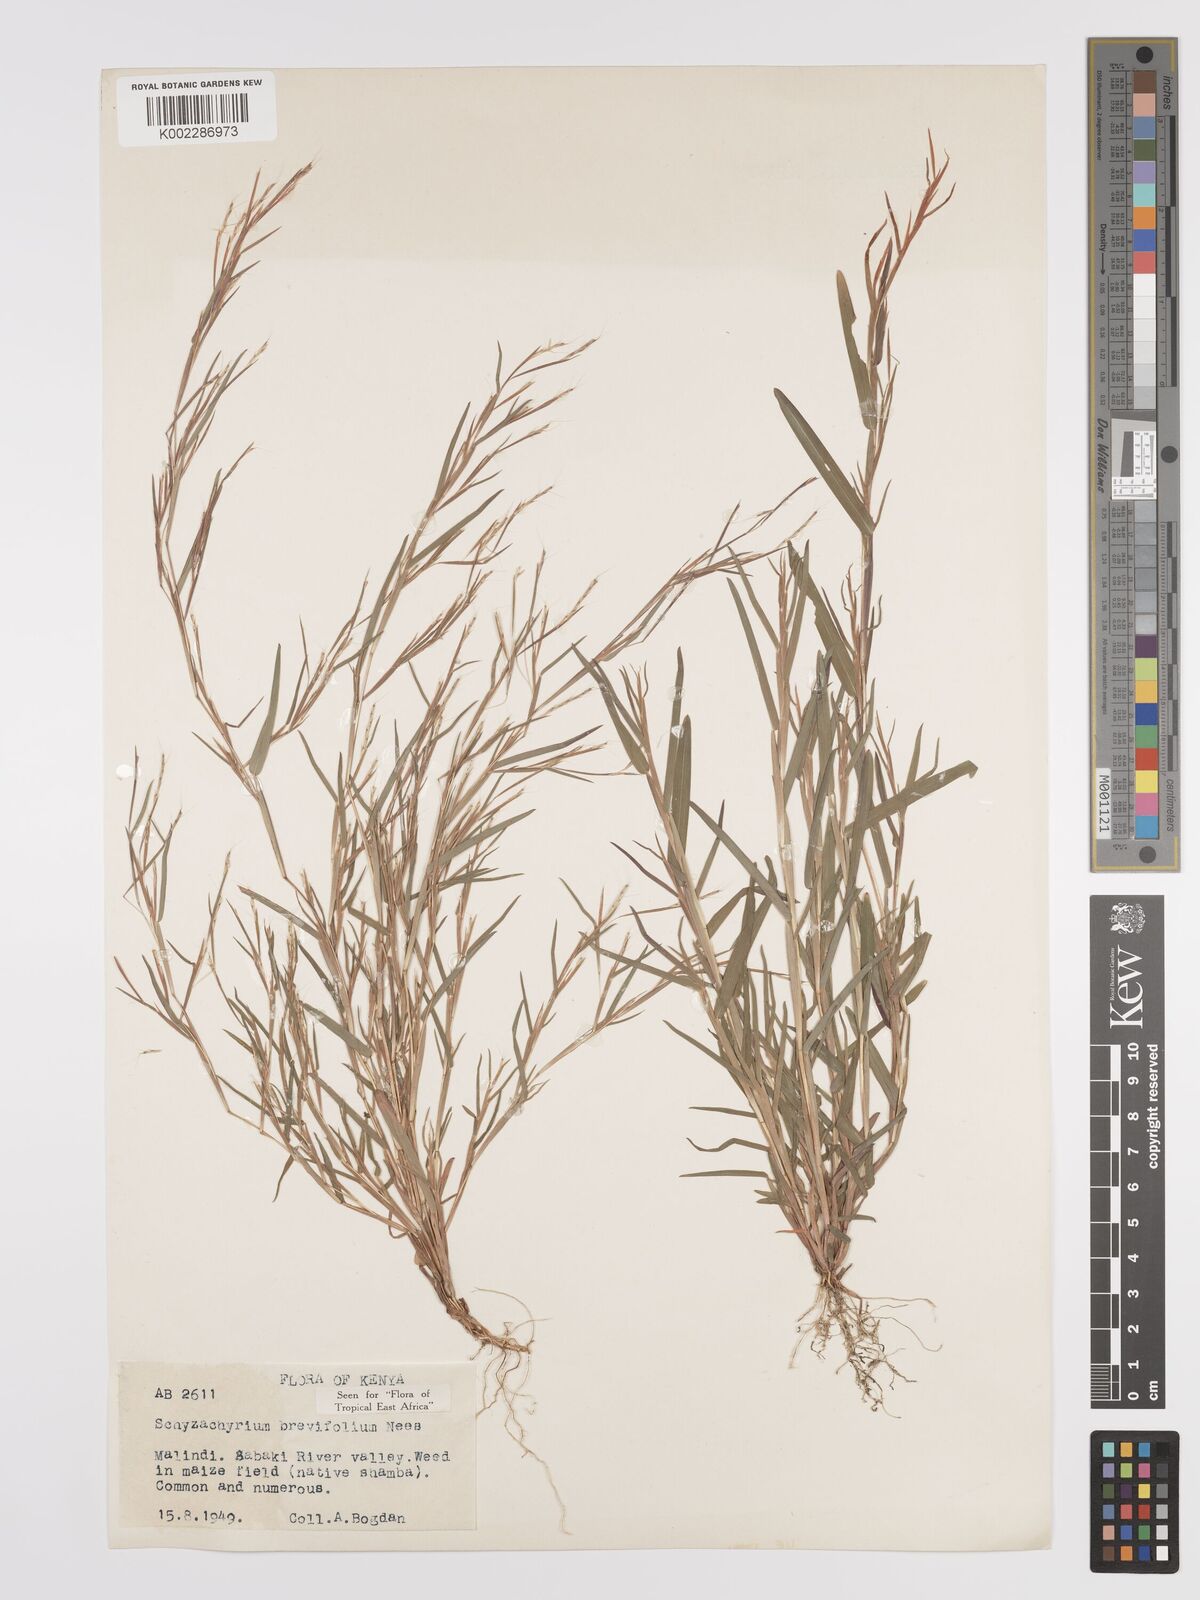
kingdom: Plantae
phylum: Tracheophyta
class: Liliopsida
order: Poales
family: Poaceae
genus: Schizachyrium
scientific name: Schizachyrium brevifolium
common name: Serillo dulce
